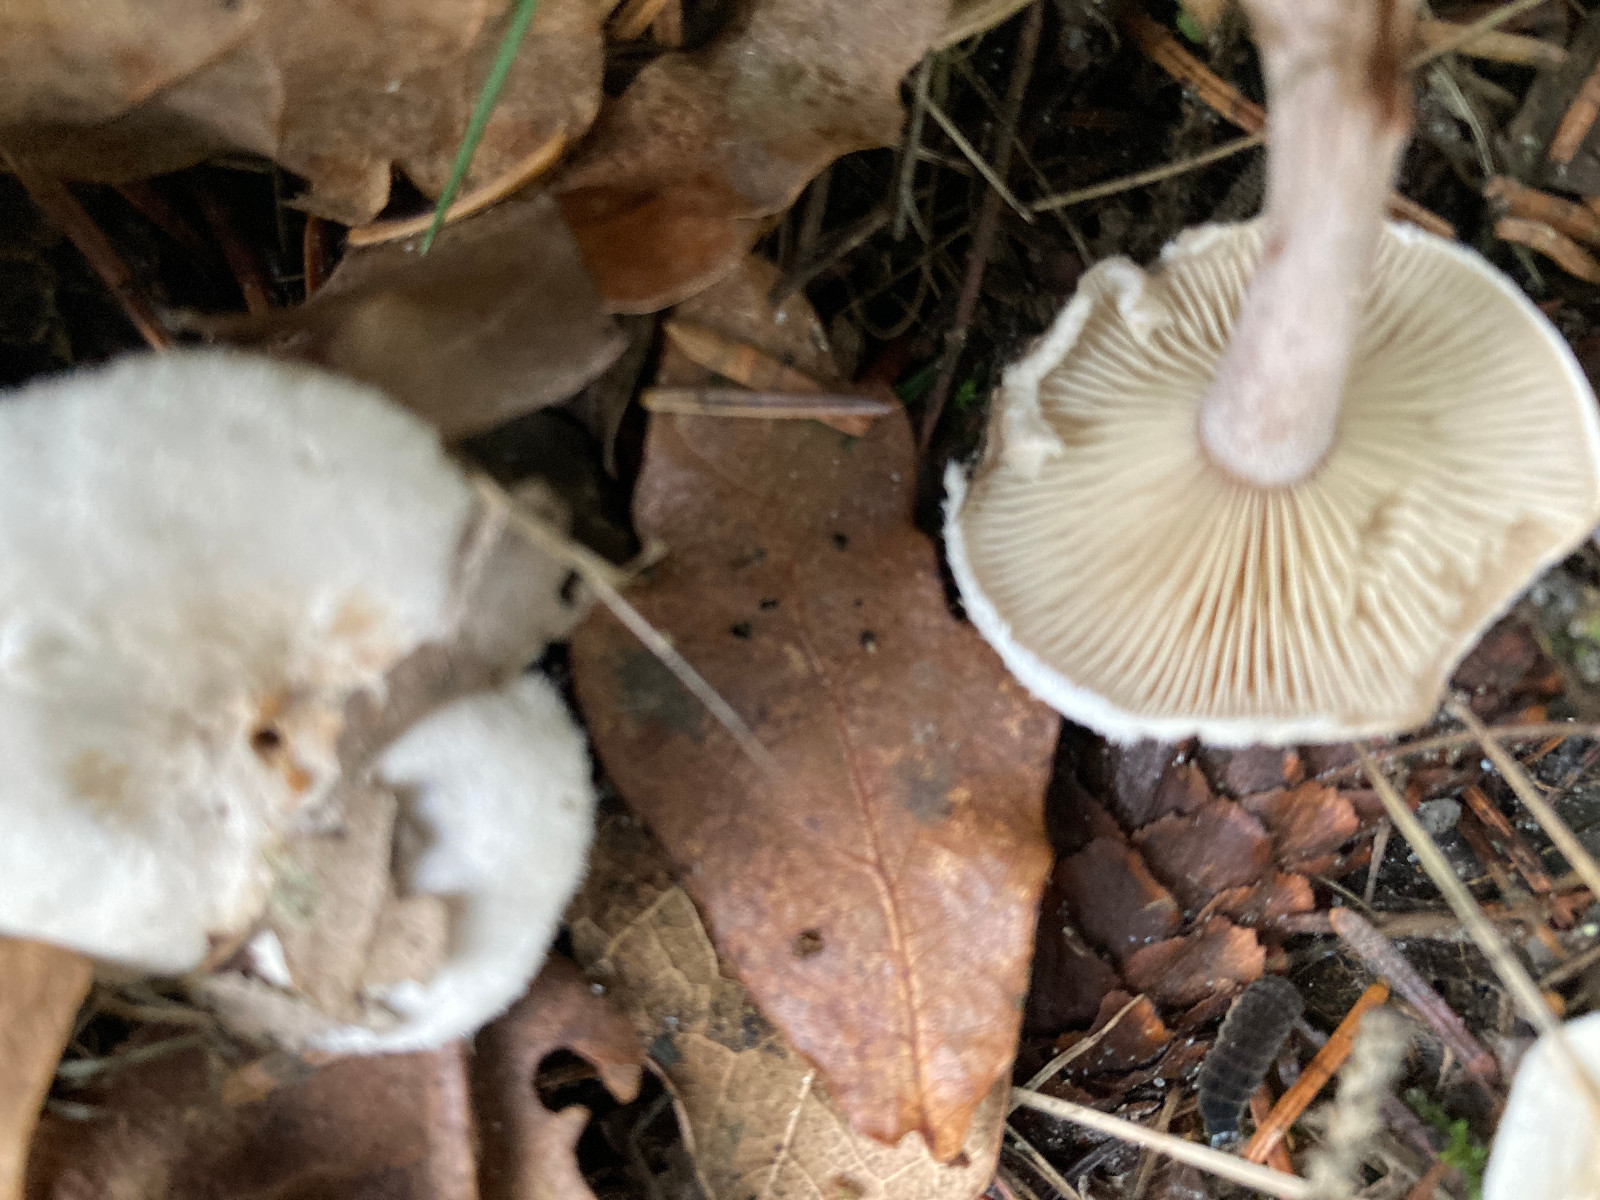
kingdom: Fungi
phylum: Basidiomycota
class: Agaricomycetes
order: Agaricales
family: Tricholomataceae
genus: Ripartites
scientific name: Ripartites tricholoma
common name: almindelig skæghat
